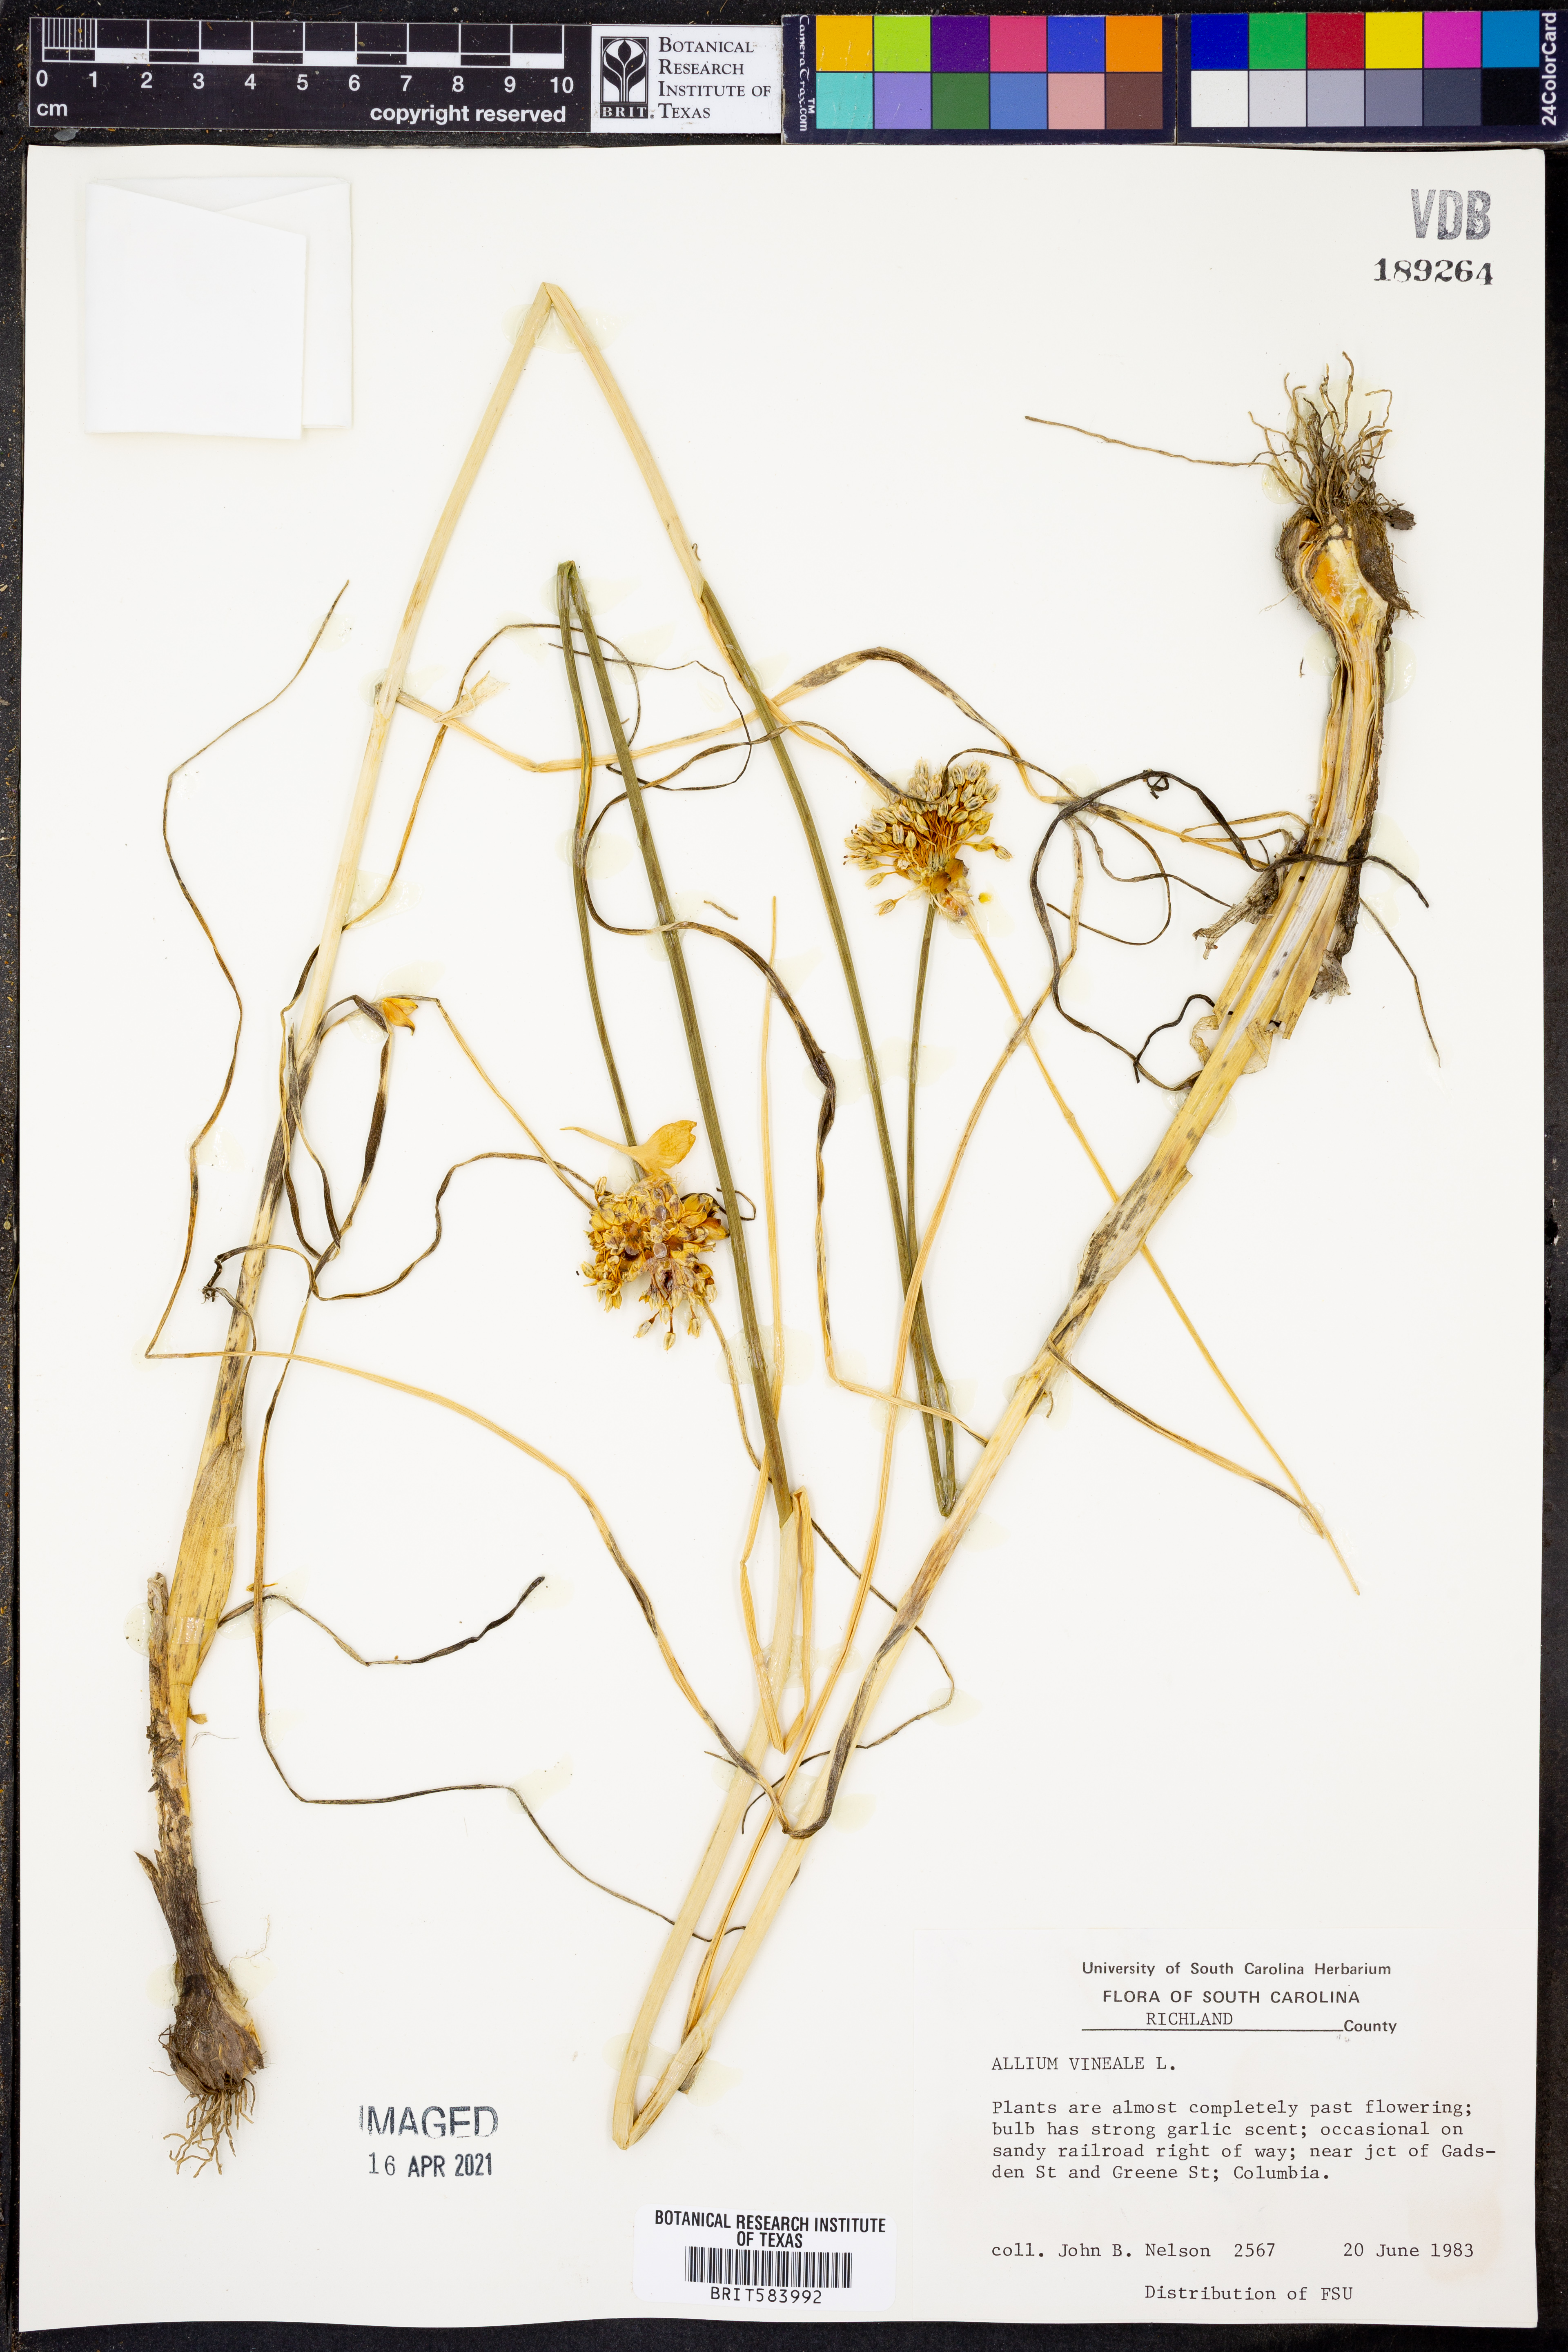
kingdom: Plantae
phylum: Tracheophyta
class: Liliopsida
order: Asparagales
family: Amaryllidaceae
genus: Allium
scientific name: Allium vineale
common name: Crow garlic
